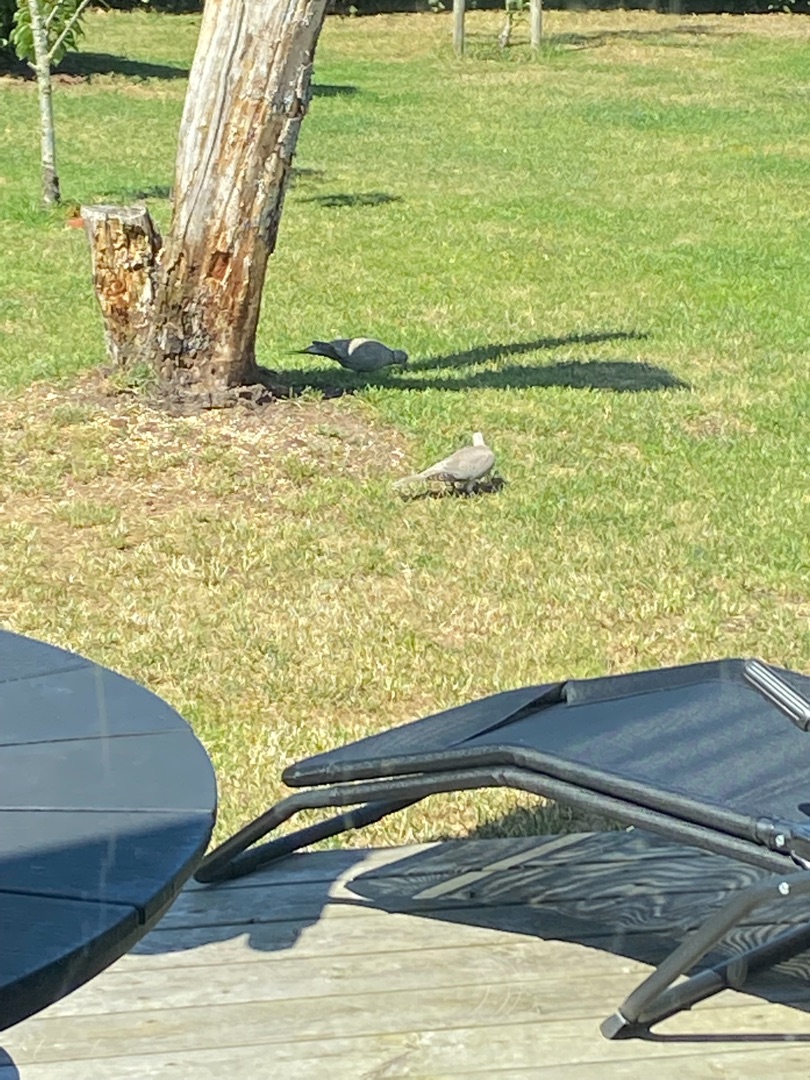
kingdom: Animalia
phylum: Chordata
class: Aves
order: Columbiformes
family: Columbidae
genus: Streptopelia
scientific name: Streptopelia decaocto
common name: Tyrkerdue
